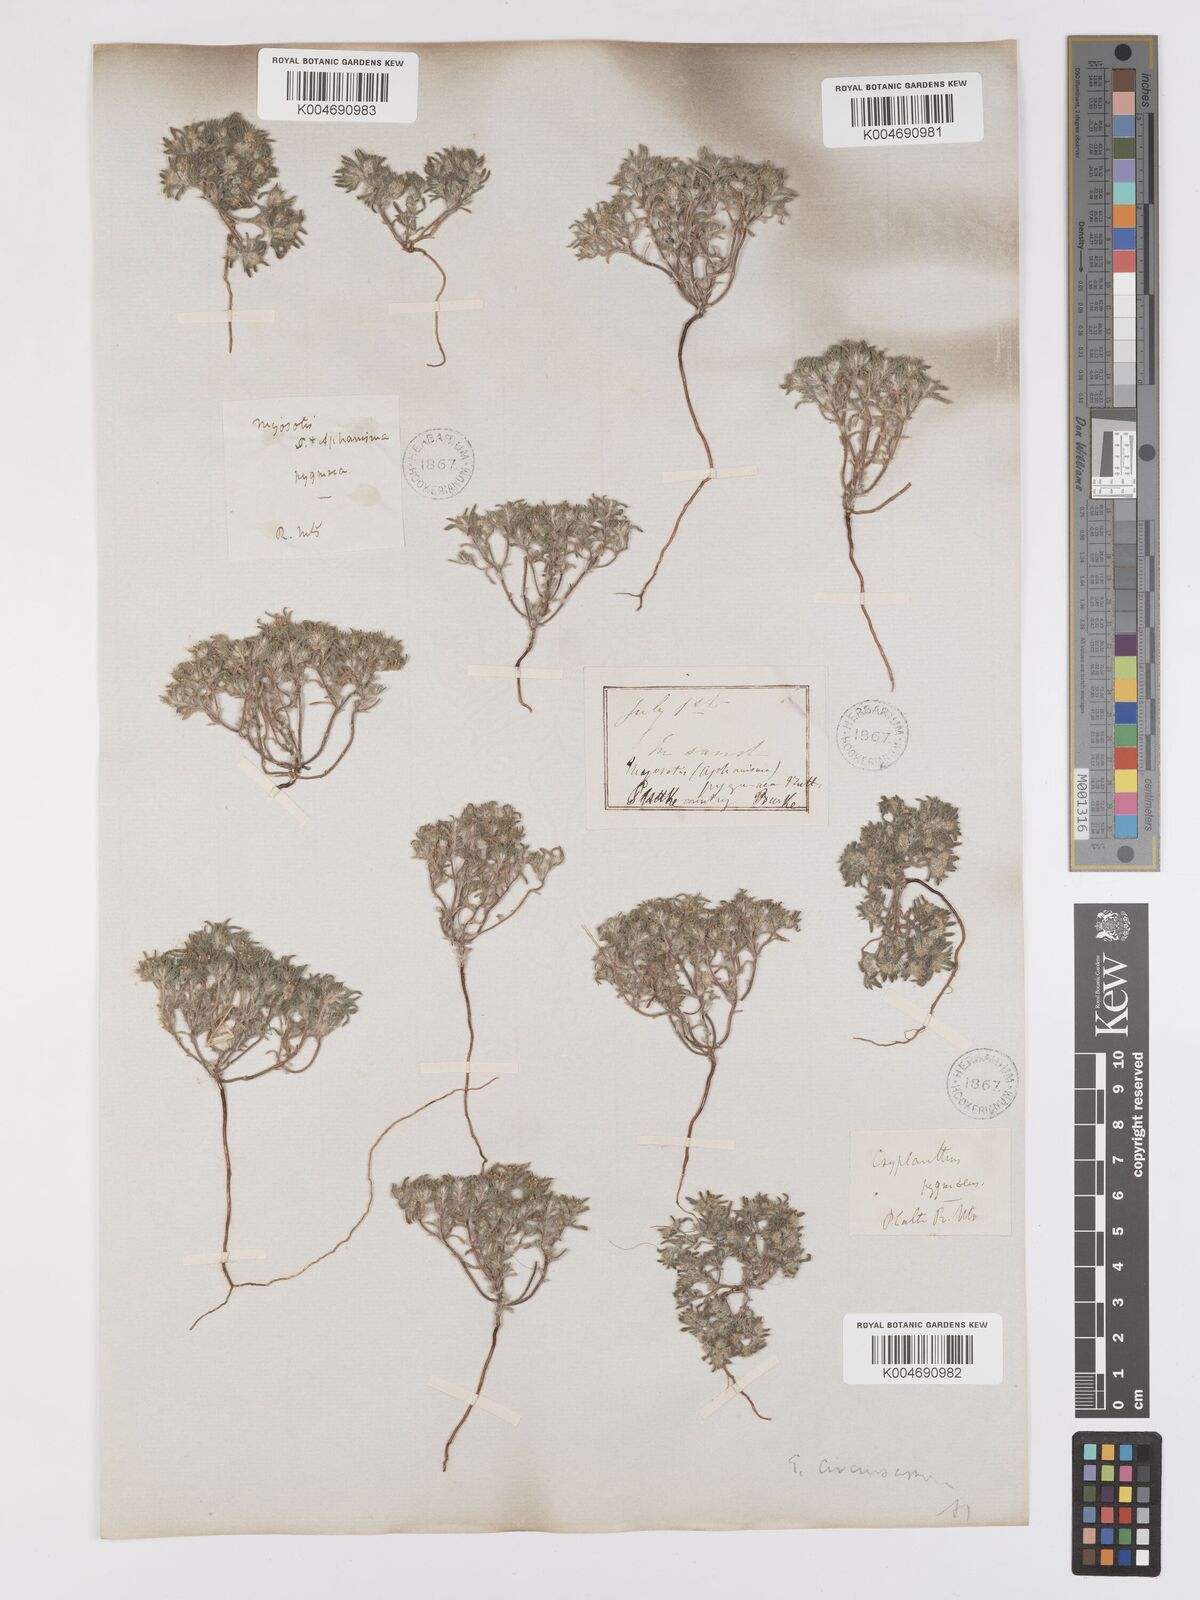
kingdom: Plantae
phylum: Tracheophyta
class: Magnoliopsida
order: Boraginales
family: Boraginaceae
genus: Greeneocharis
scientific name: Greeneocharis circumscissa
